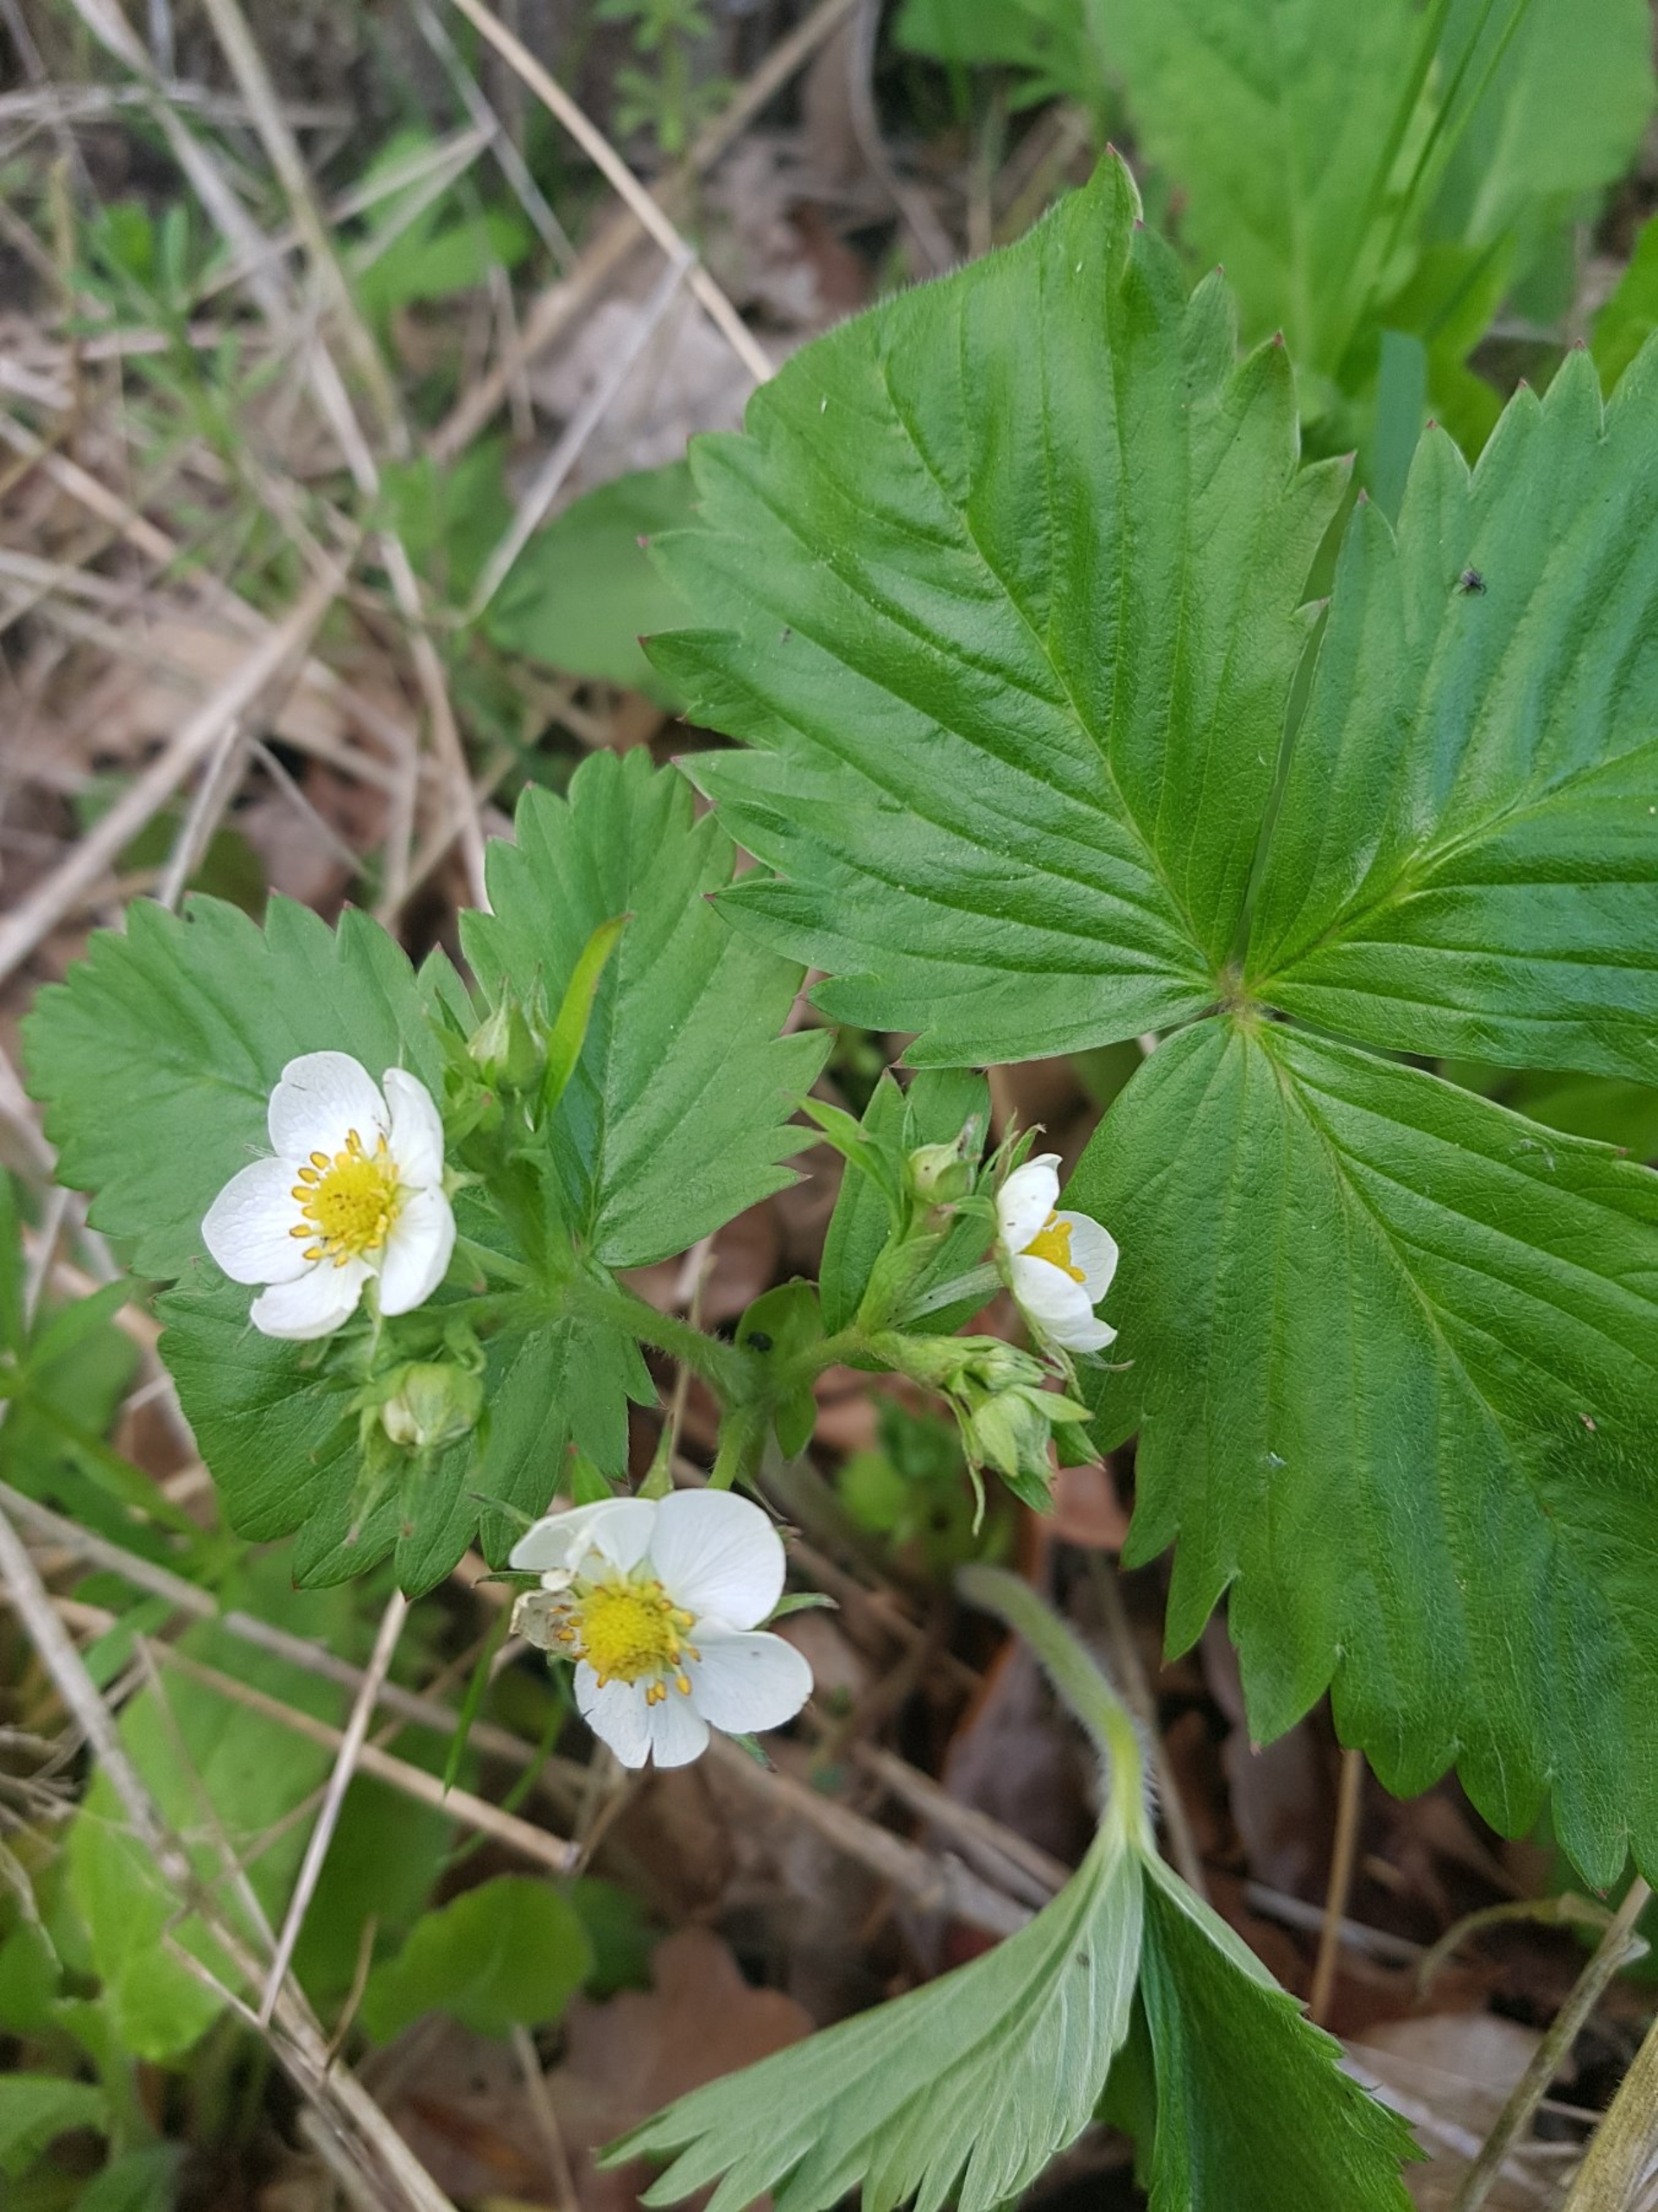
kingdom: Plantae
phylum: Tracheophyta
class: Magnoliopsida
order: Rosales
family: Rosaceae
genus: Fragaria
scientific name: Fragaria vesca
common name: Skov-jordbær
